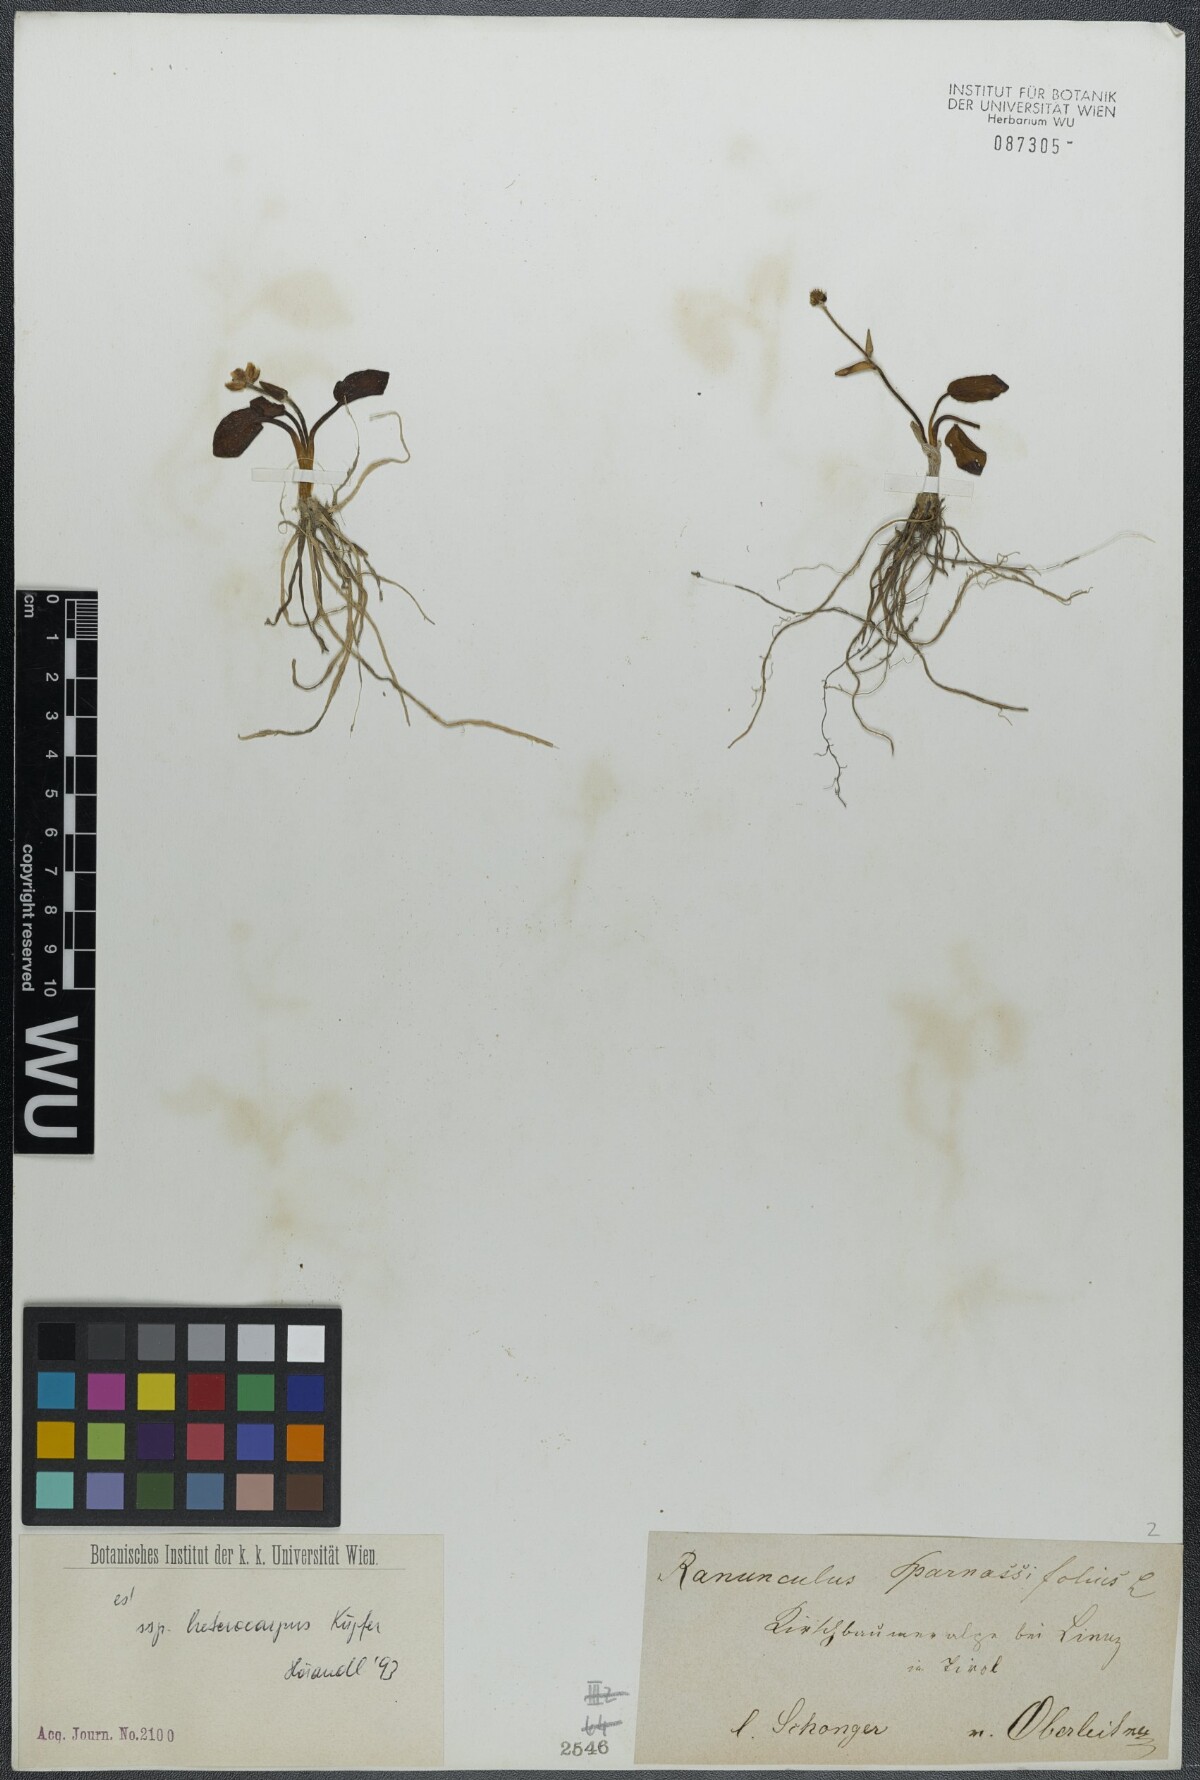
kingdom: Plantae
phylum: Tracheophyta
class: Magnoliopsida
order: Ranunculales
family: Ranunculaceae
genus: Ranunculus
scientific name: Ranunculus parnassiifolius
